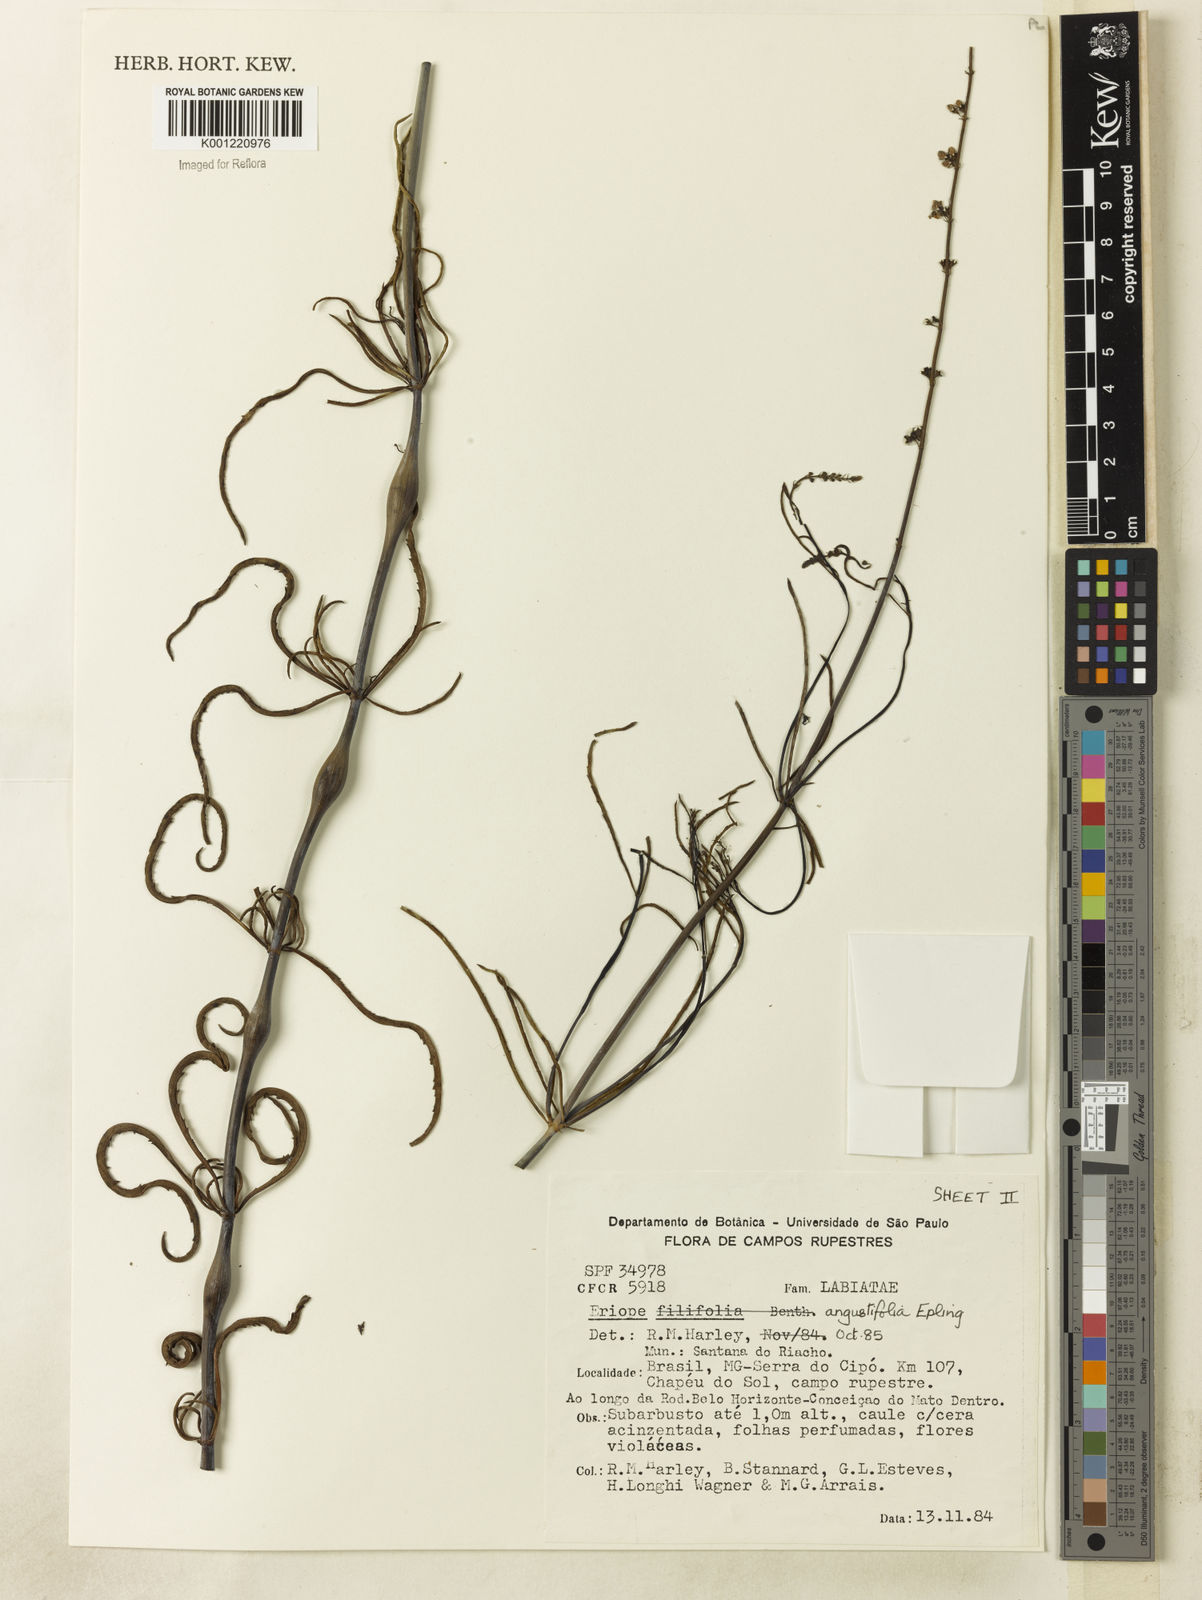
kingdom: Plantae
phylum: Tracheophyta
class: Magnoliopsida
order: Lamiales
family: Lamiaceae
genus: Eriope
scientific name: Eriope angustifolia
